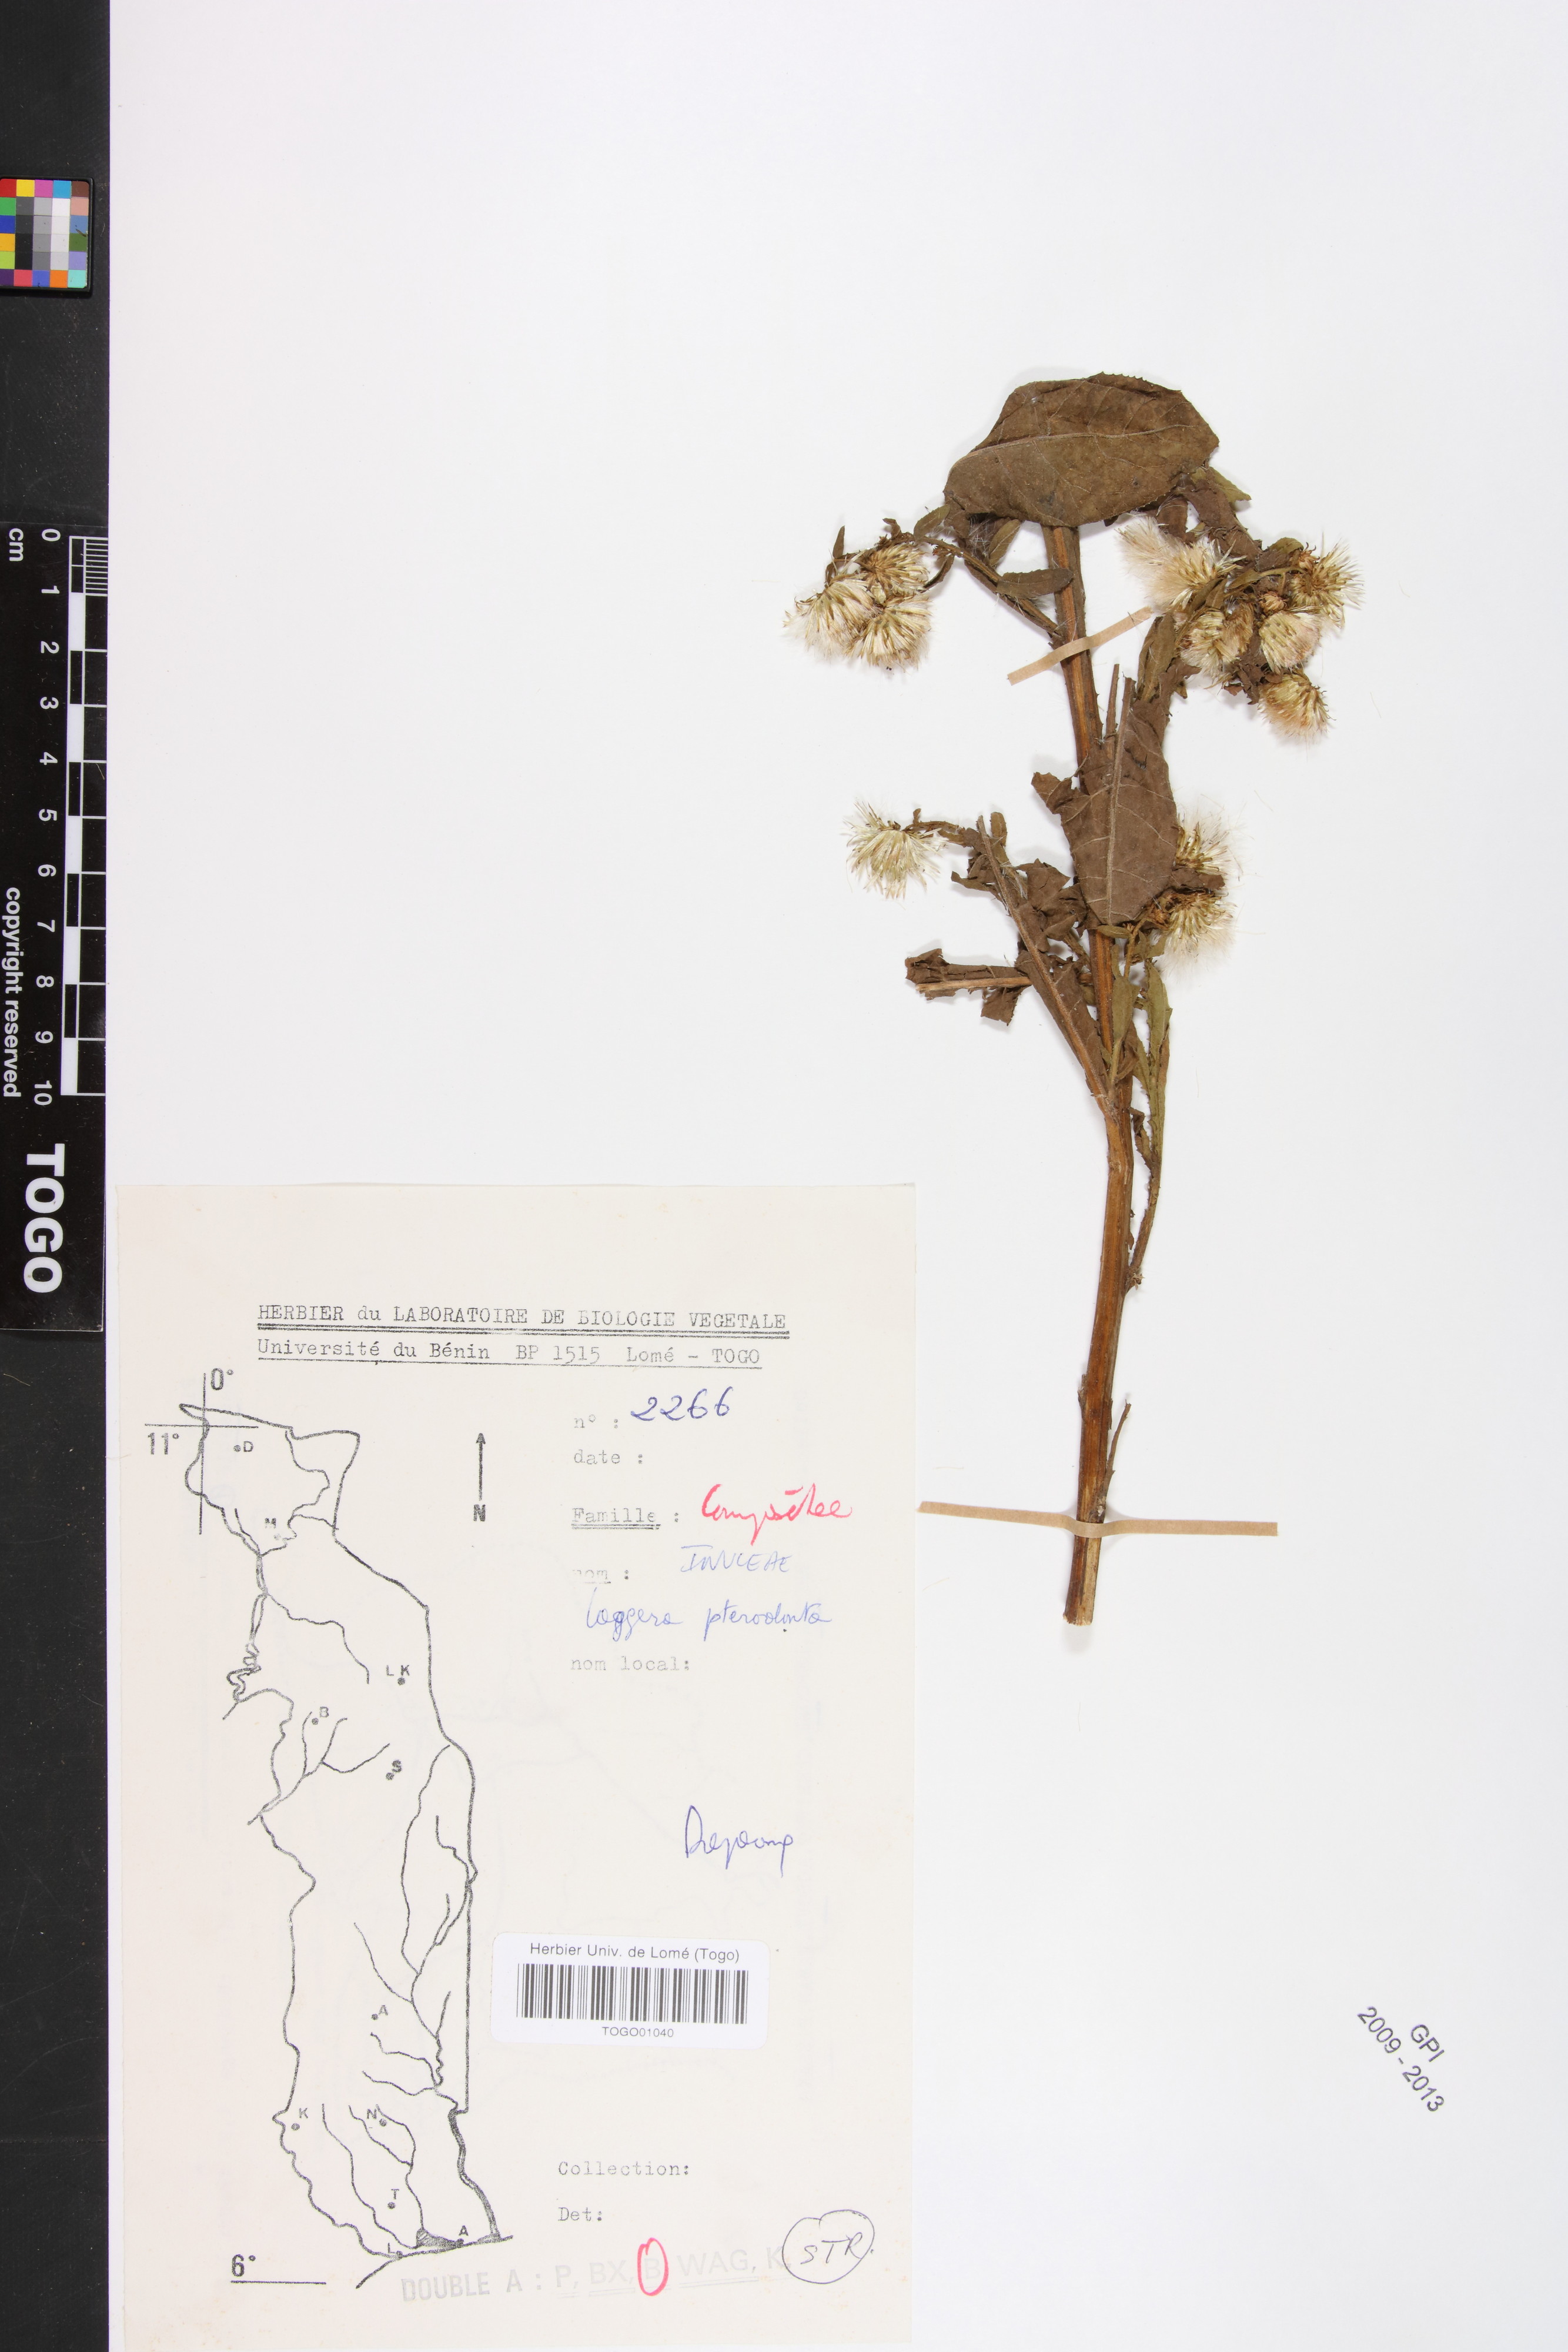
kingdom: Plantae
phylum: Tracheophyta
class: Magnoliopsida
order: Asterales
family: Asteraceae
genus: Laggera
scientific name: Laggera crispata
